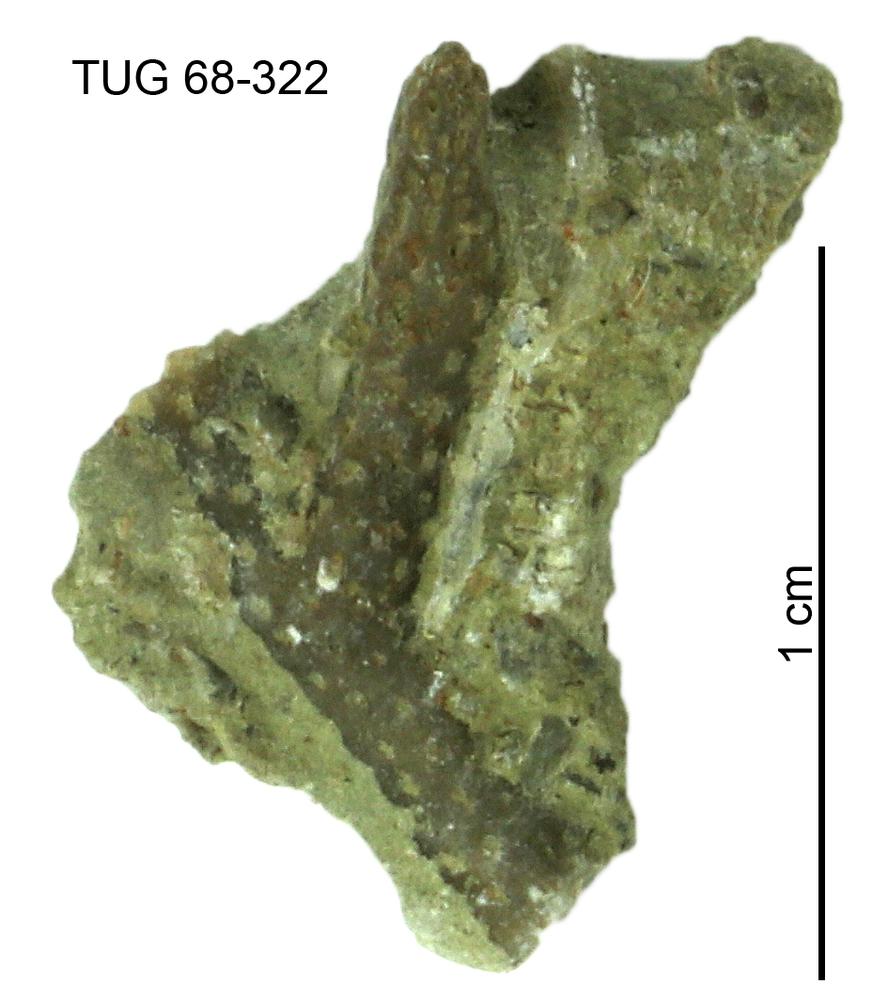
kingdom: Animalia
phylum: Bryozoa
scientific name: Bryozoa
